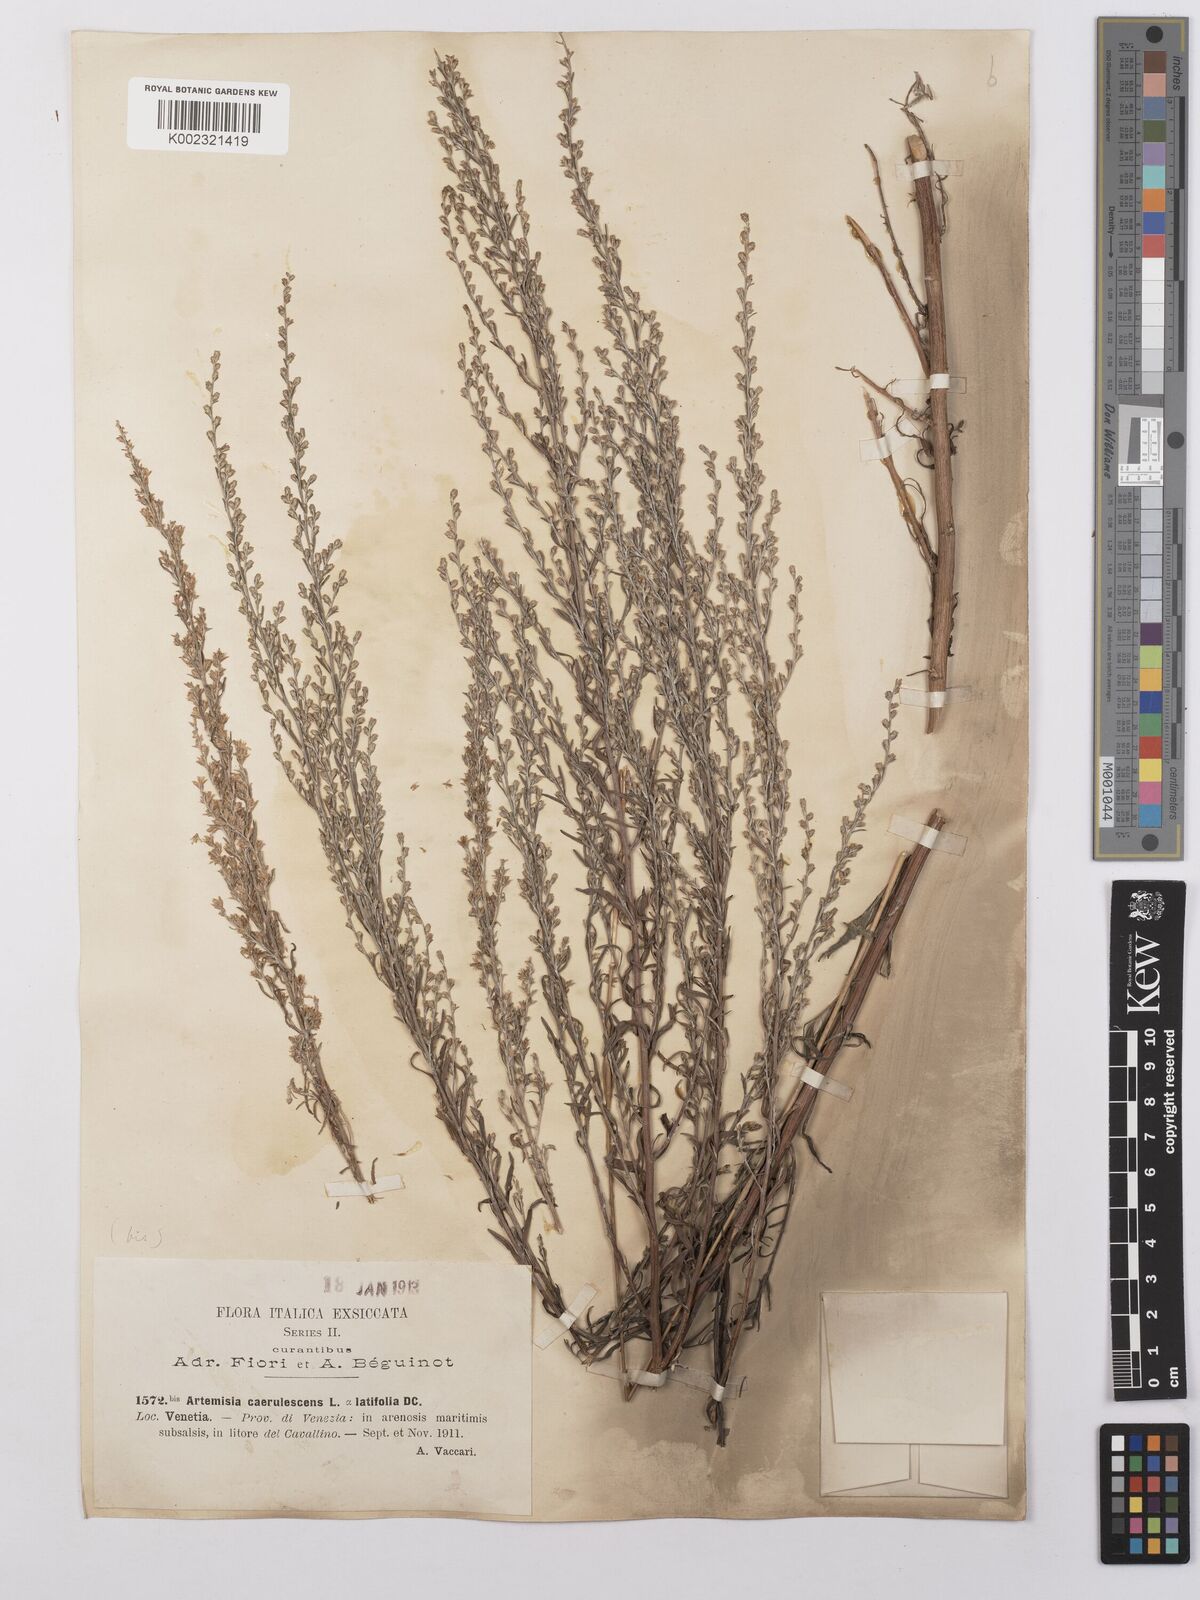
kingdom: Plantae
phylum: Tracheophyta
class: Magnoliopsida
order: Asterales
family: Asteraceae
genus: Artemisia
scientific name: Artemisia caerulescens
